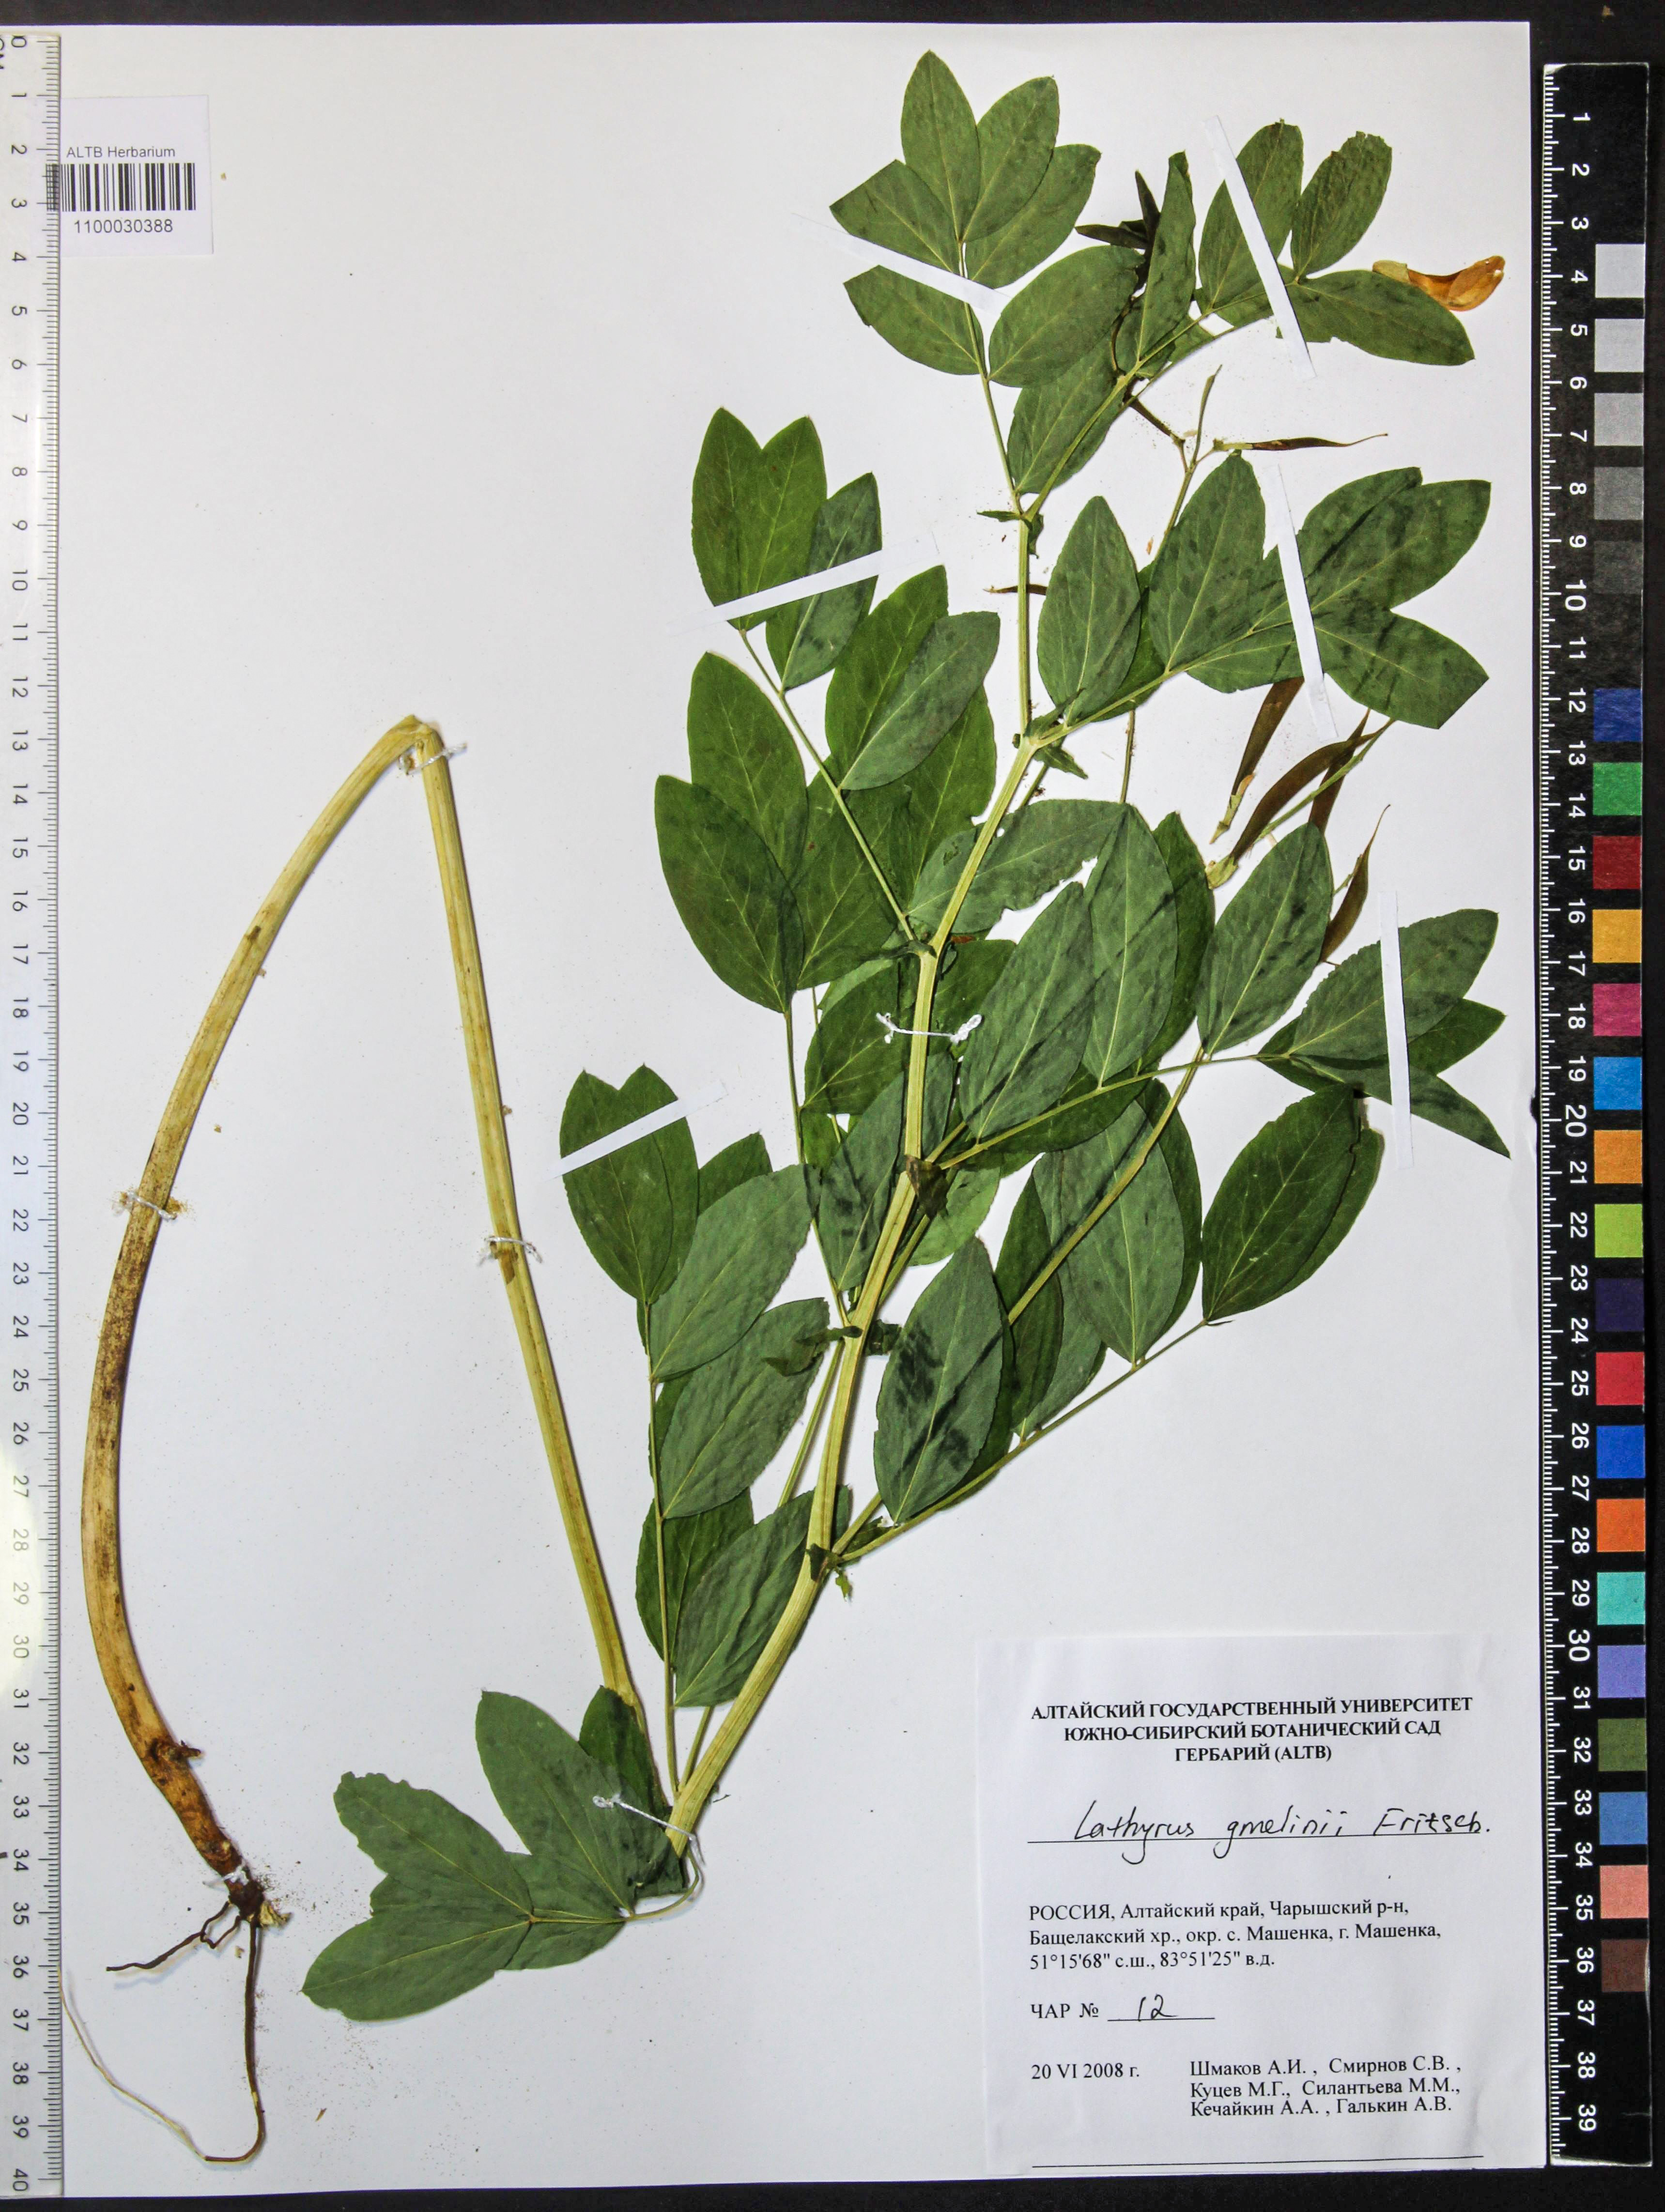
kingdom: Plantae
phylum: Tracheophyta
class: Magnoliopsida
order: Fabales
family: Fabaceae
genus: Lathyrus
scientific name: Lathyrus gmelinii
